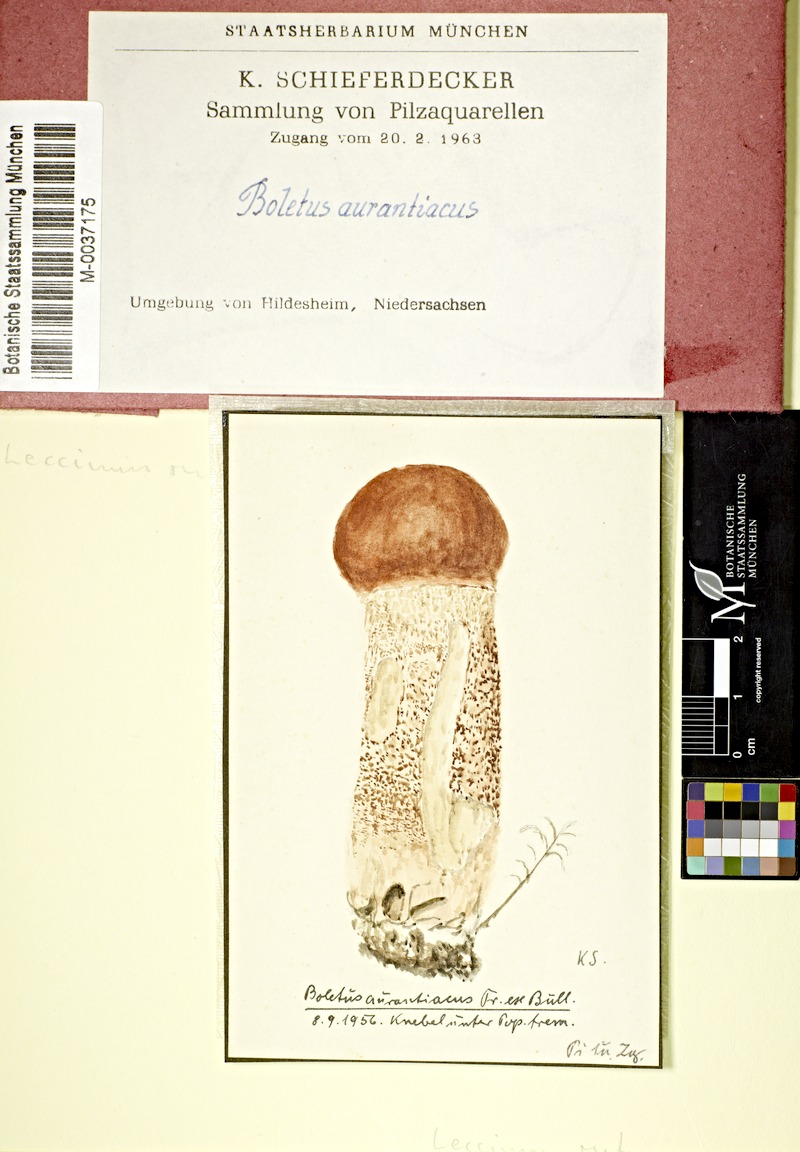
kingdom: Plantae
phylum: Tracheophyta
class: Magnoliopsida
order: Malpighiales
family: Salicaceae
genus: Populus
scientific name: Populus tremula
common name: European aspen
